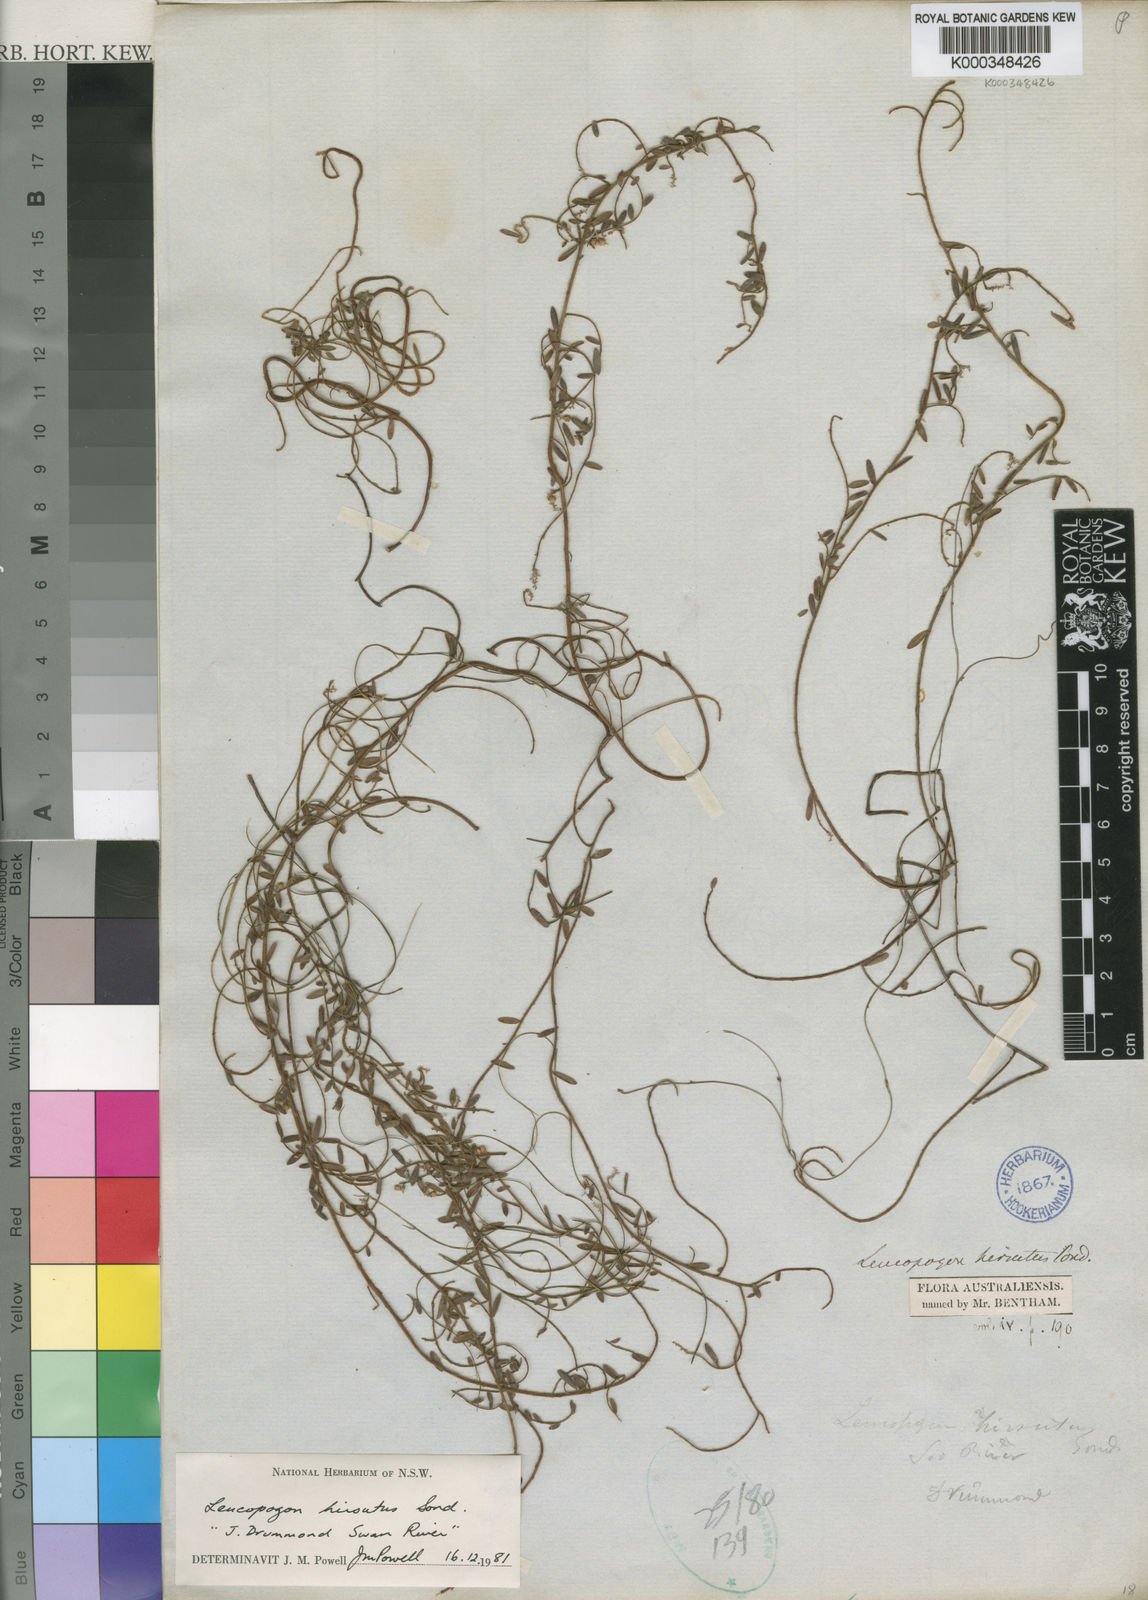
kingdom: Plantae
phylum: Tracheophyta
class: Magnoliopsida
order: Ericales
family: Ericaceae
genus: Leucopogon
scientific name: Leucopogon hirsutus
